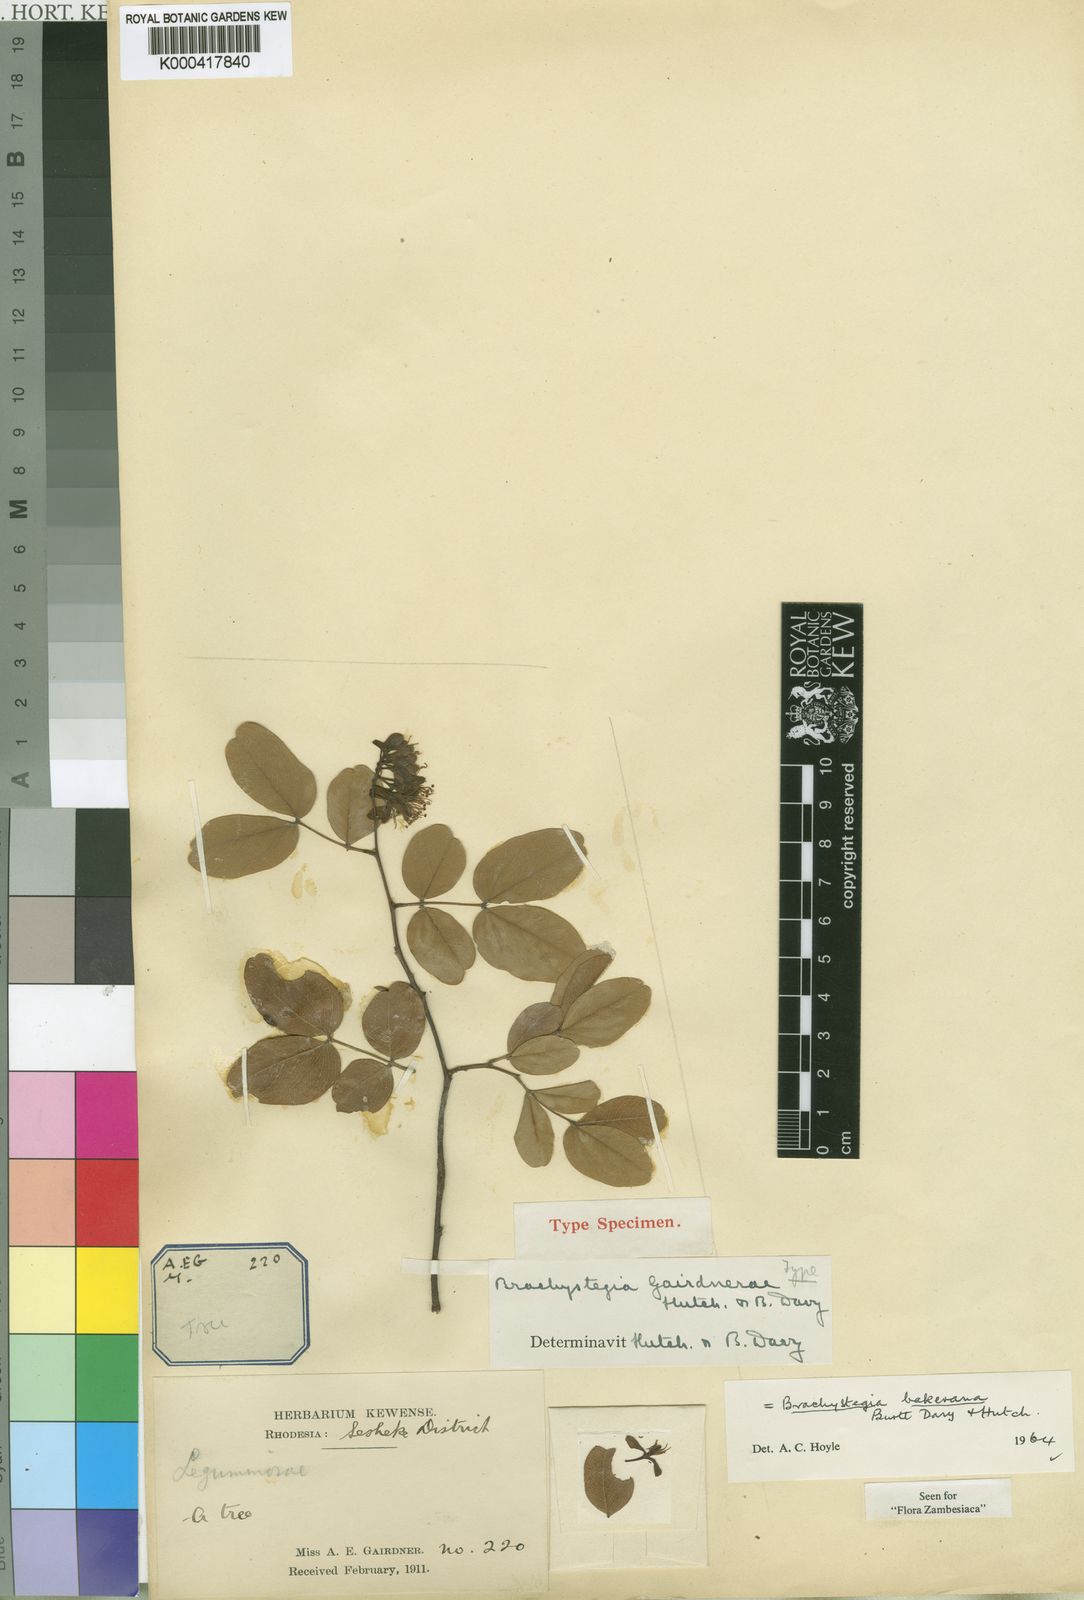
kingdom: Plantae
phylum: Tracheophyta
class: Magnoliopsida
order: Fabales
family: Fabaceae
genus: Brachystegia
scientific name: Brachystegia bakeriana
